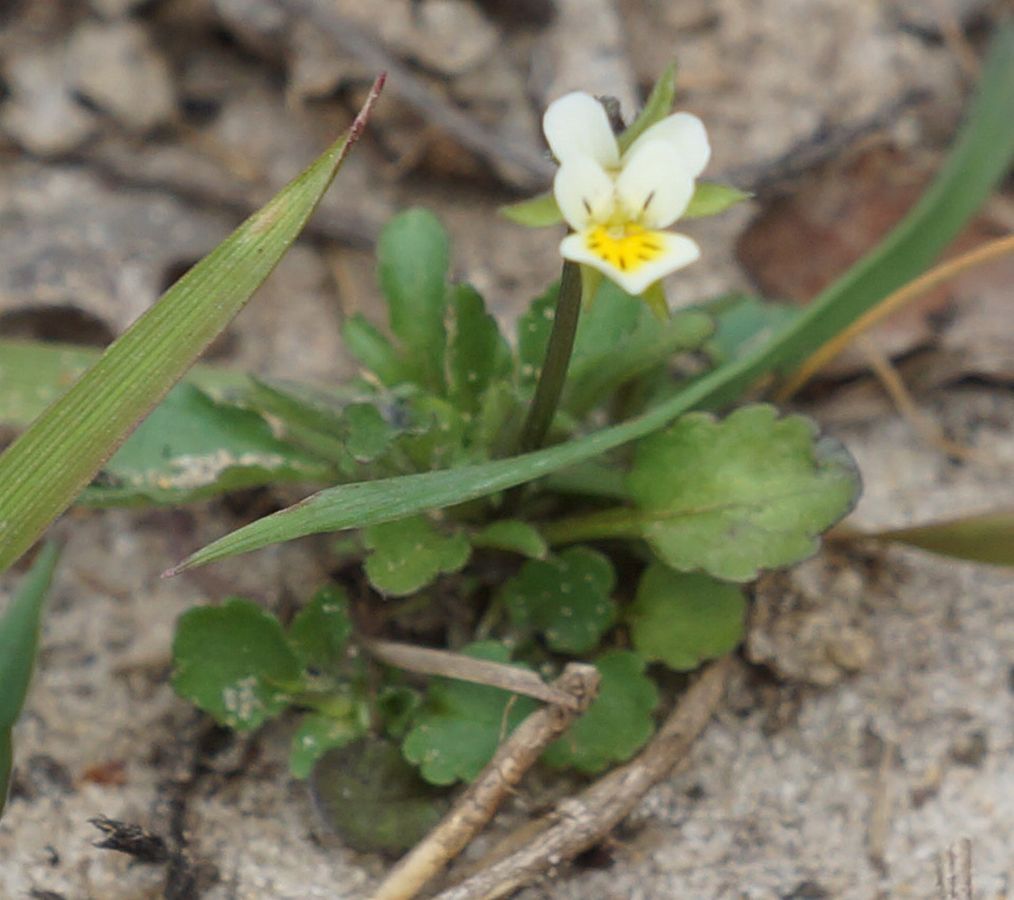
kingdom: Plantae
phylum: Tracheophyta
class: Magnoliopsida
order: Malpighiales
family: Violaceae
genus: Viola
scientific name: Viola arvensis
